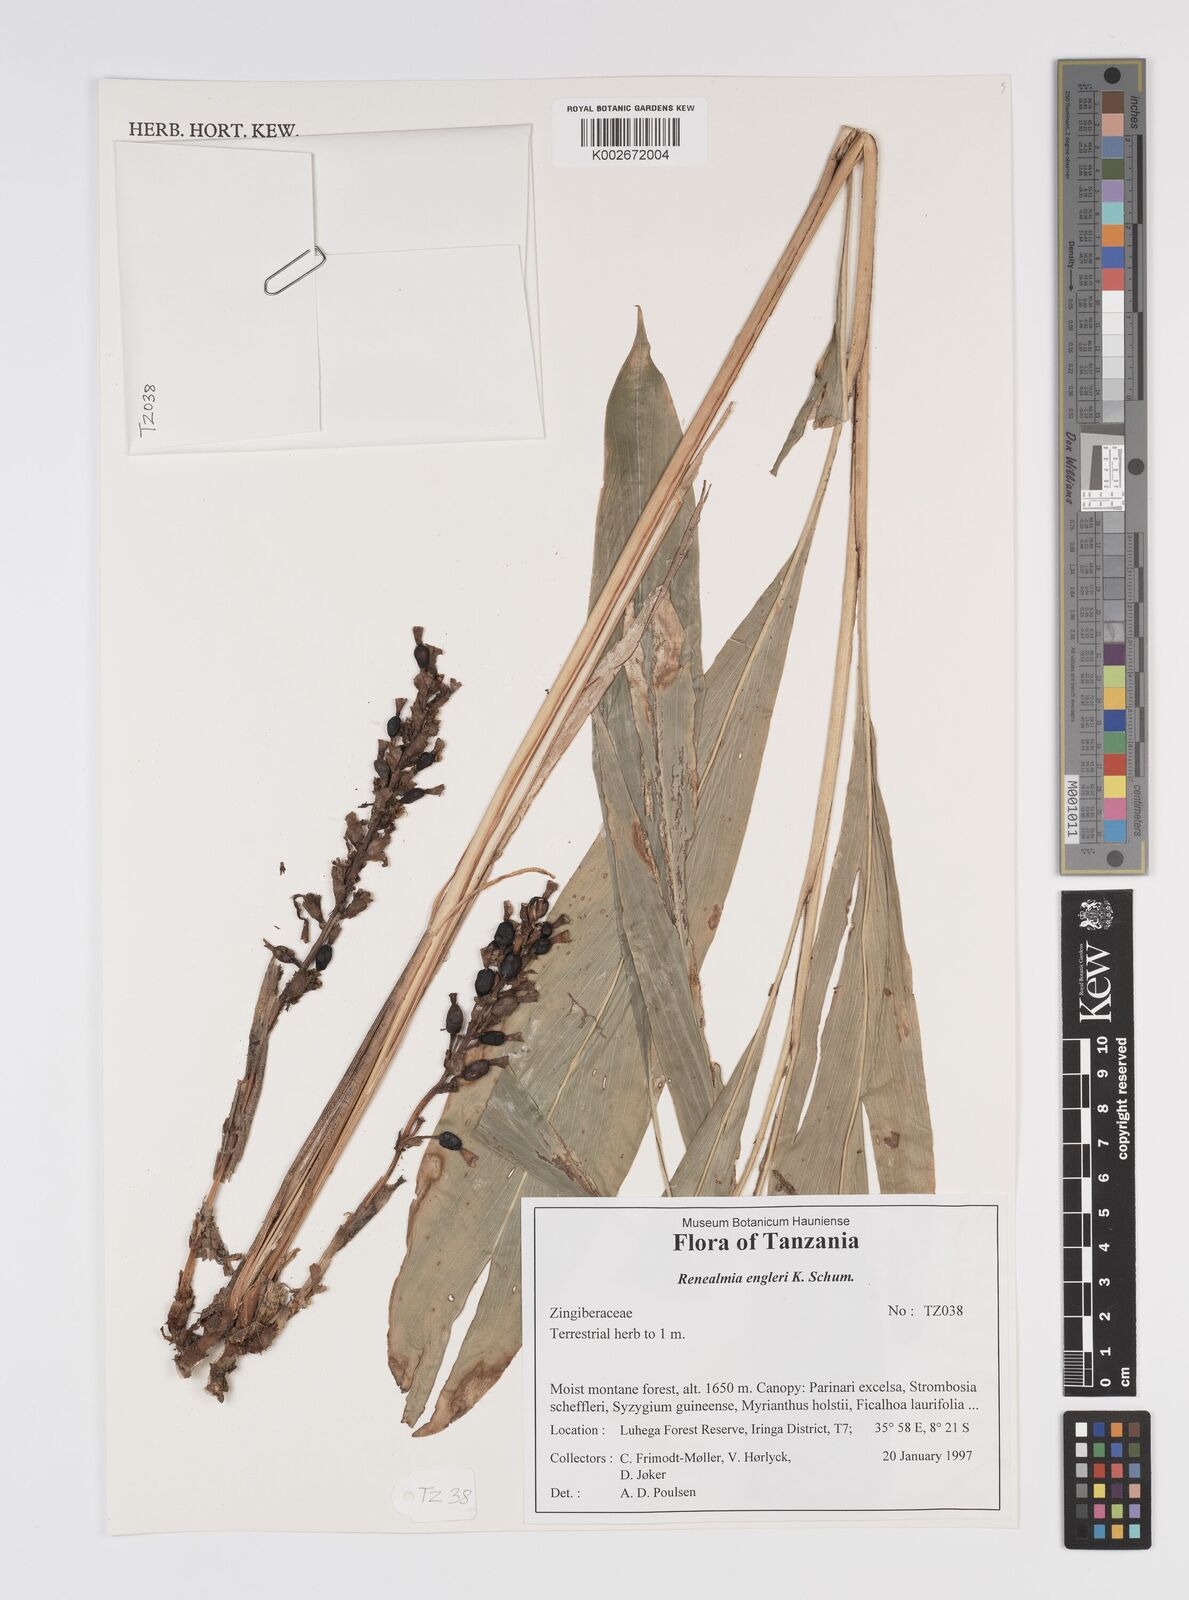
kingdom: Plantae
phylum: Tracheophyta
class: Liliopsida
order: Zingiberales
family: Zingiberaceae
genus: Renealmia
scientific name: Renealmia engleri
